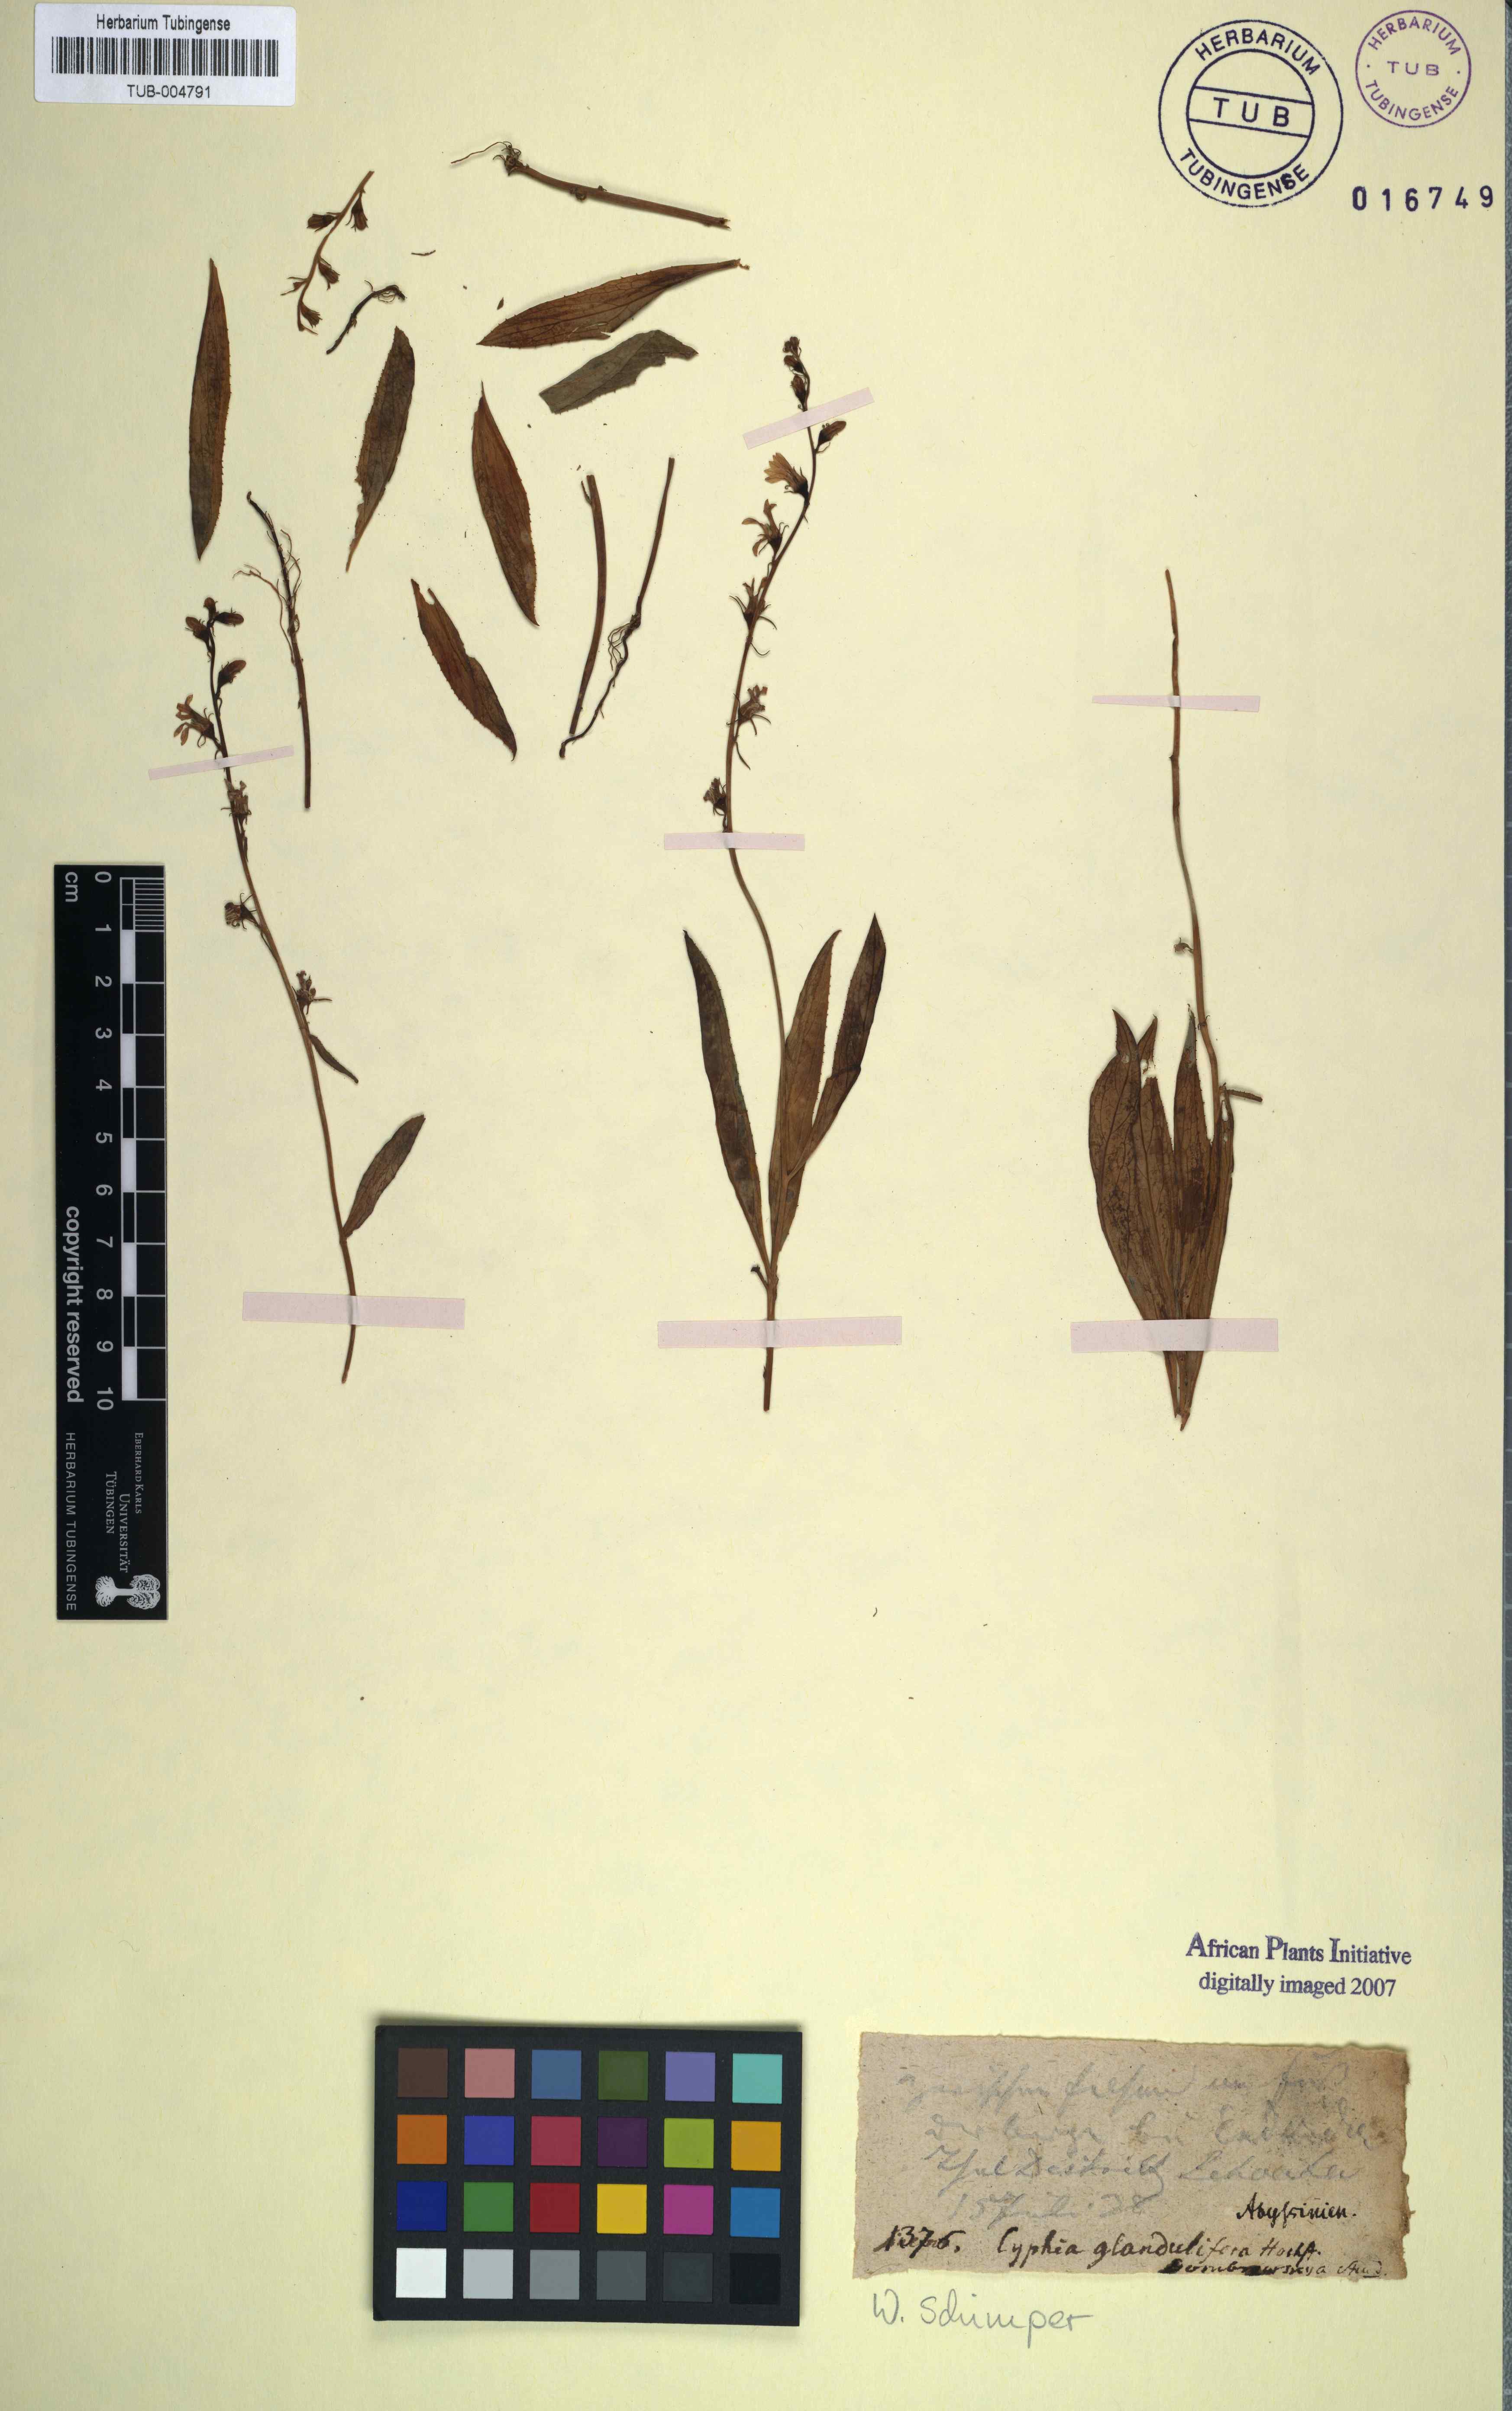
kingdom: Plantae
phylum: Tracheophyta
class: Magnoliopsida
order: Asterales
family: Campanulaceae
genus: Cyphia
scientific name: Cyphia glandulifera
